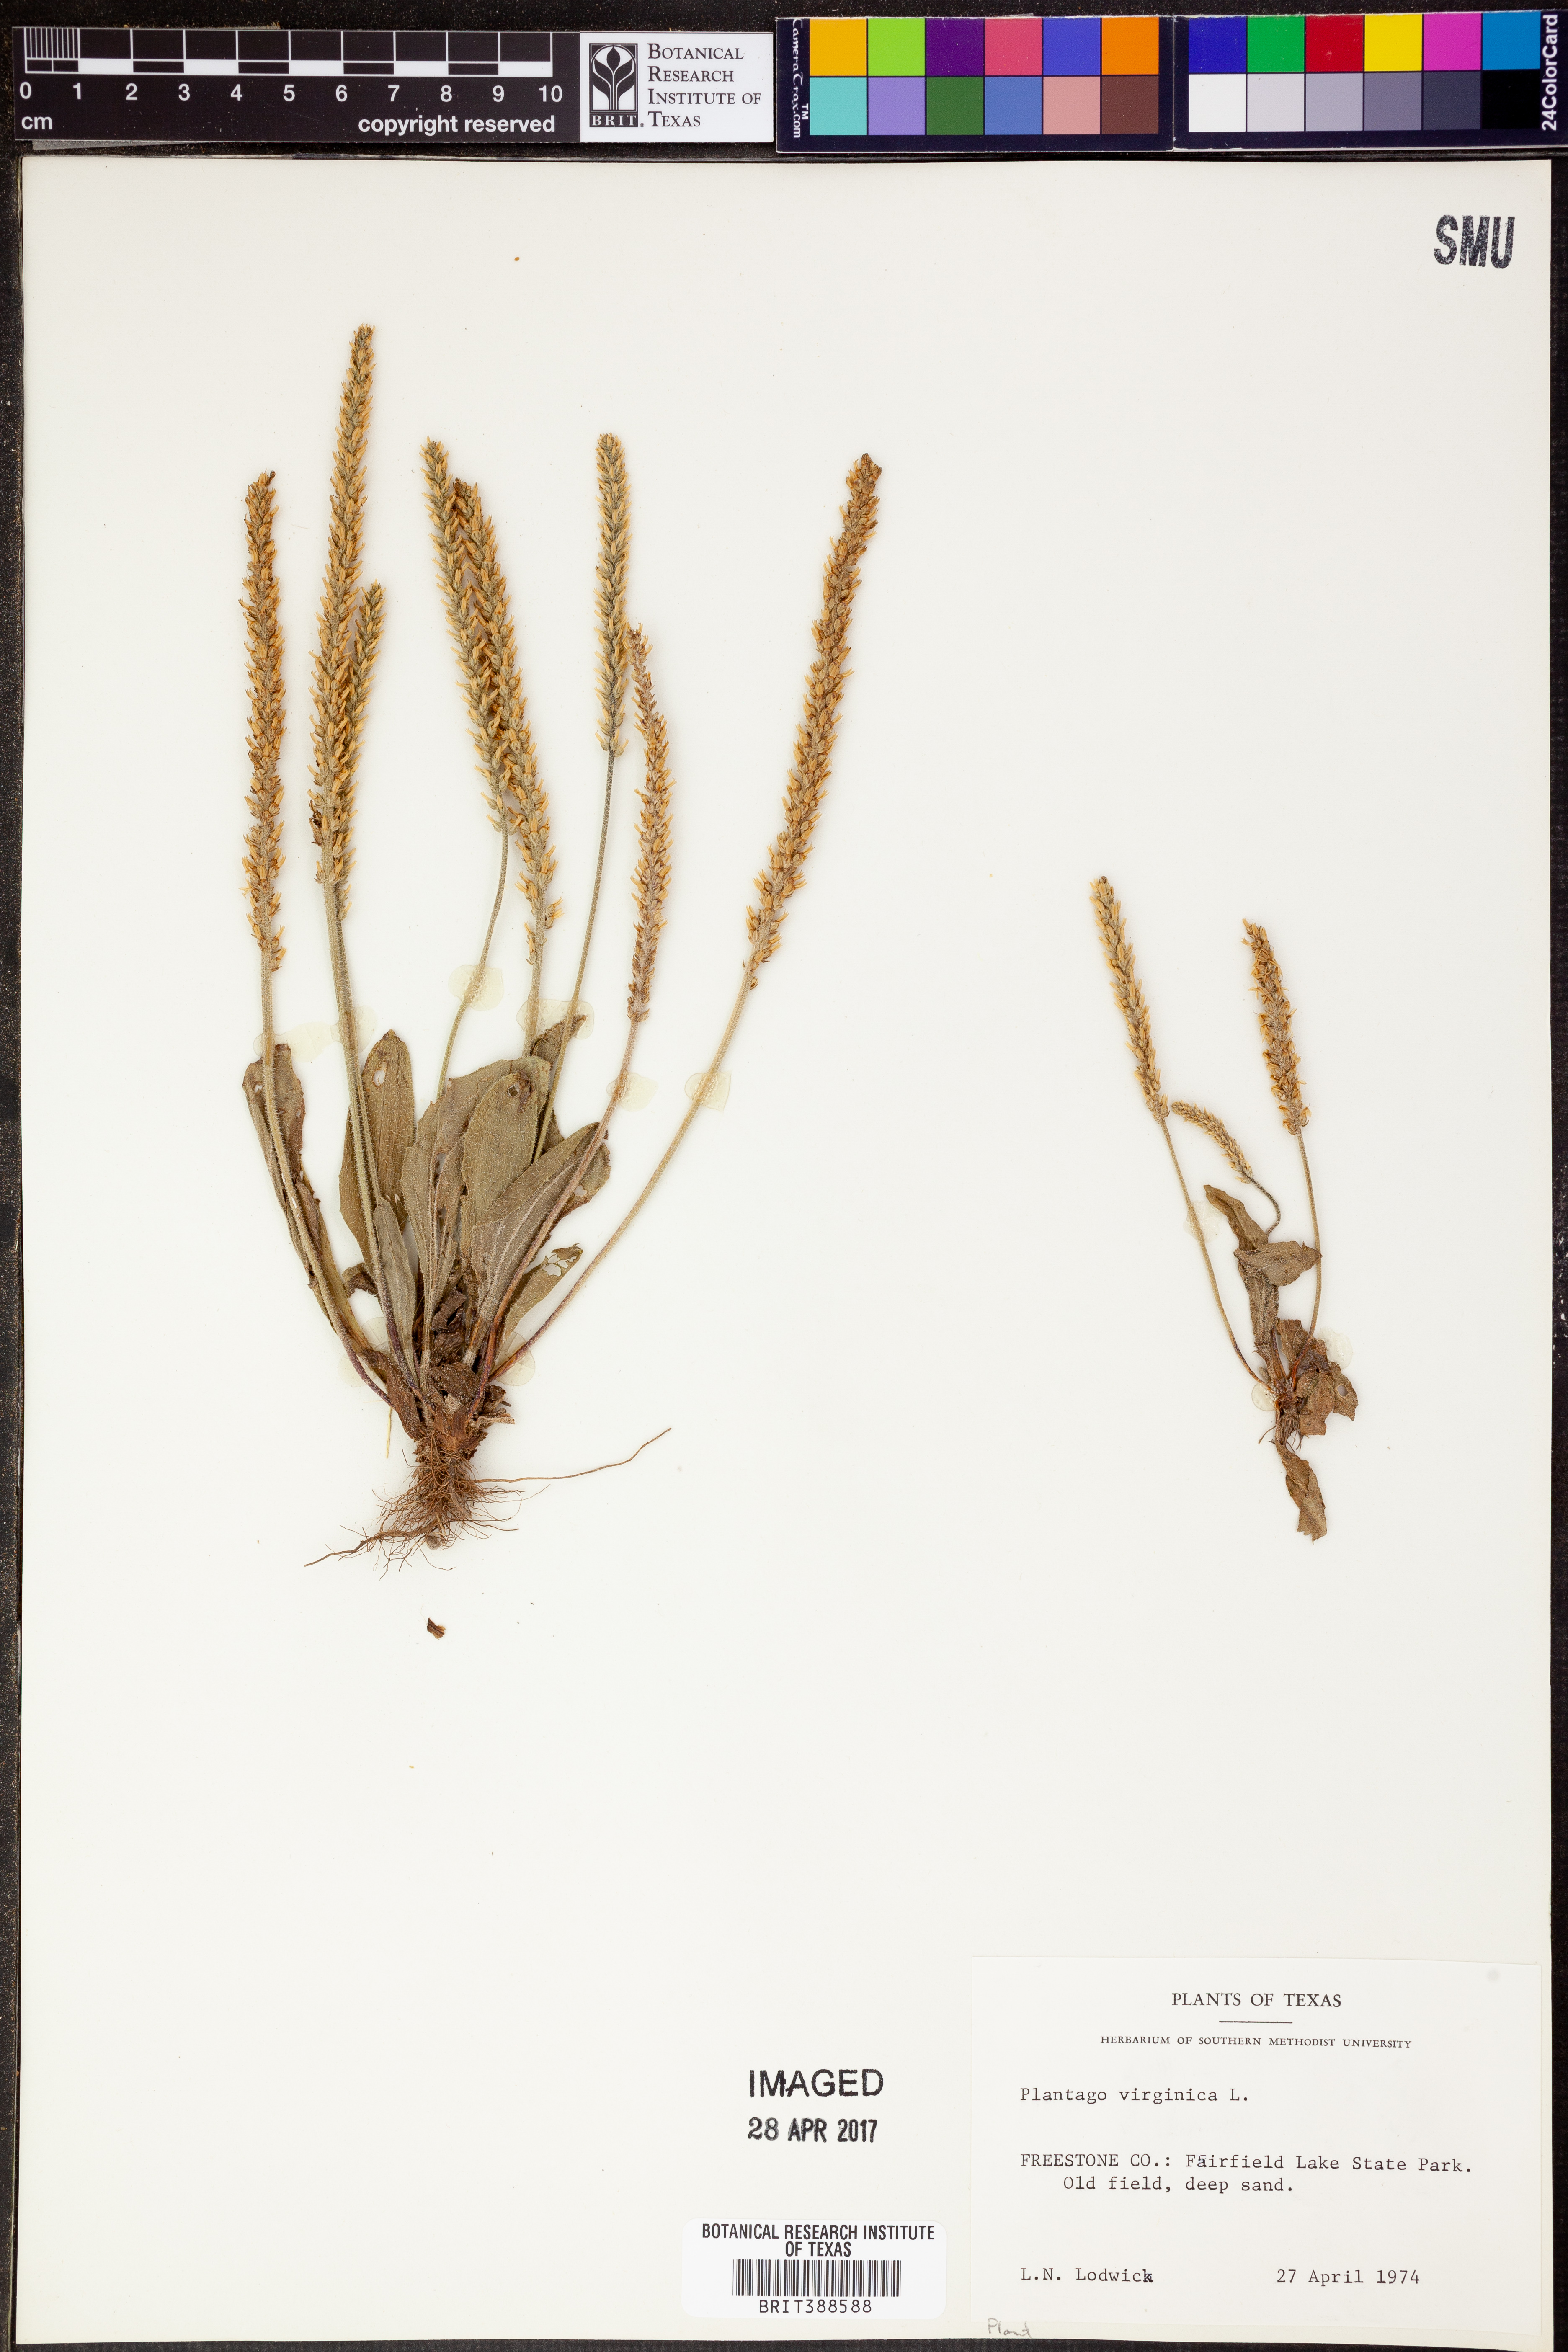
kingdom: Plantae
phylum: Tracheophyta
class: Magnoliopsida
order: Lamiales
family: Plantaginaceae
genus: Plantago
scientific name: Plantago virginica
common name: Hoary plantain
